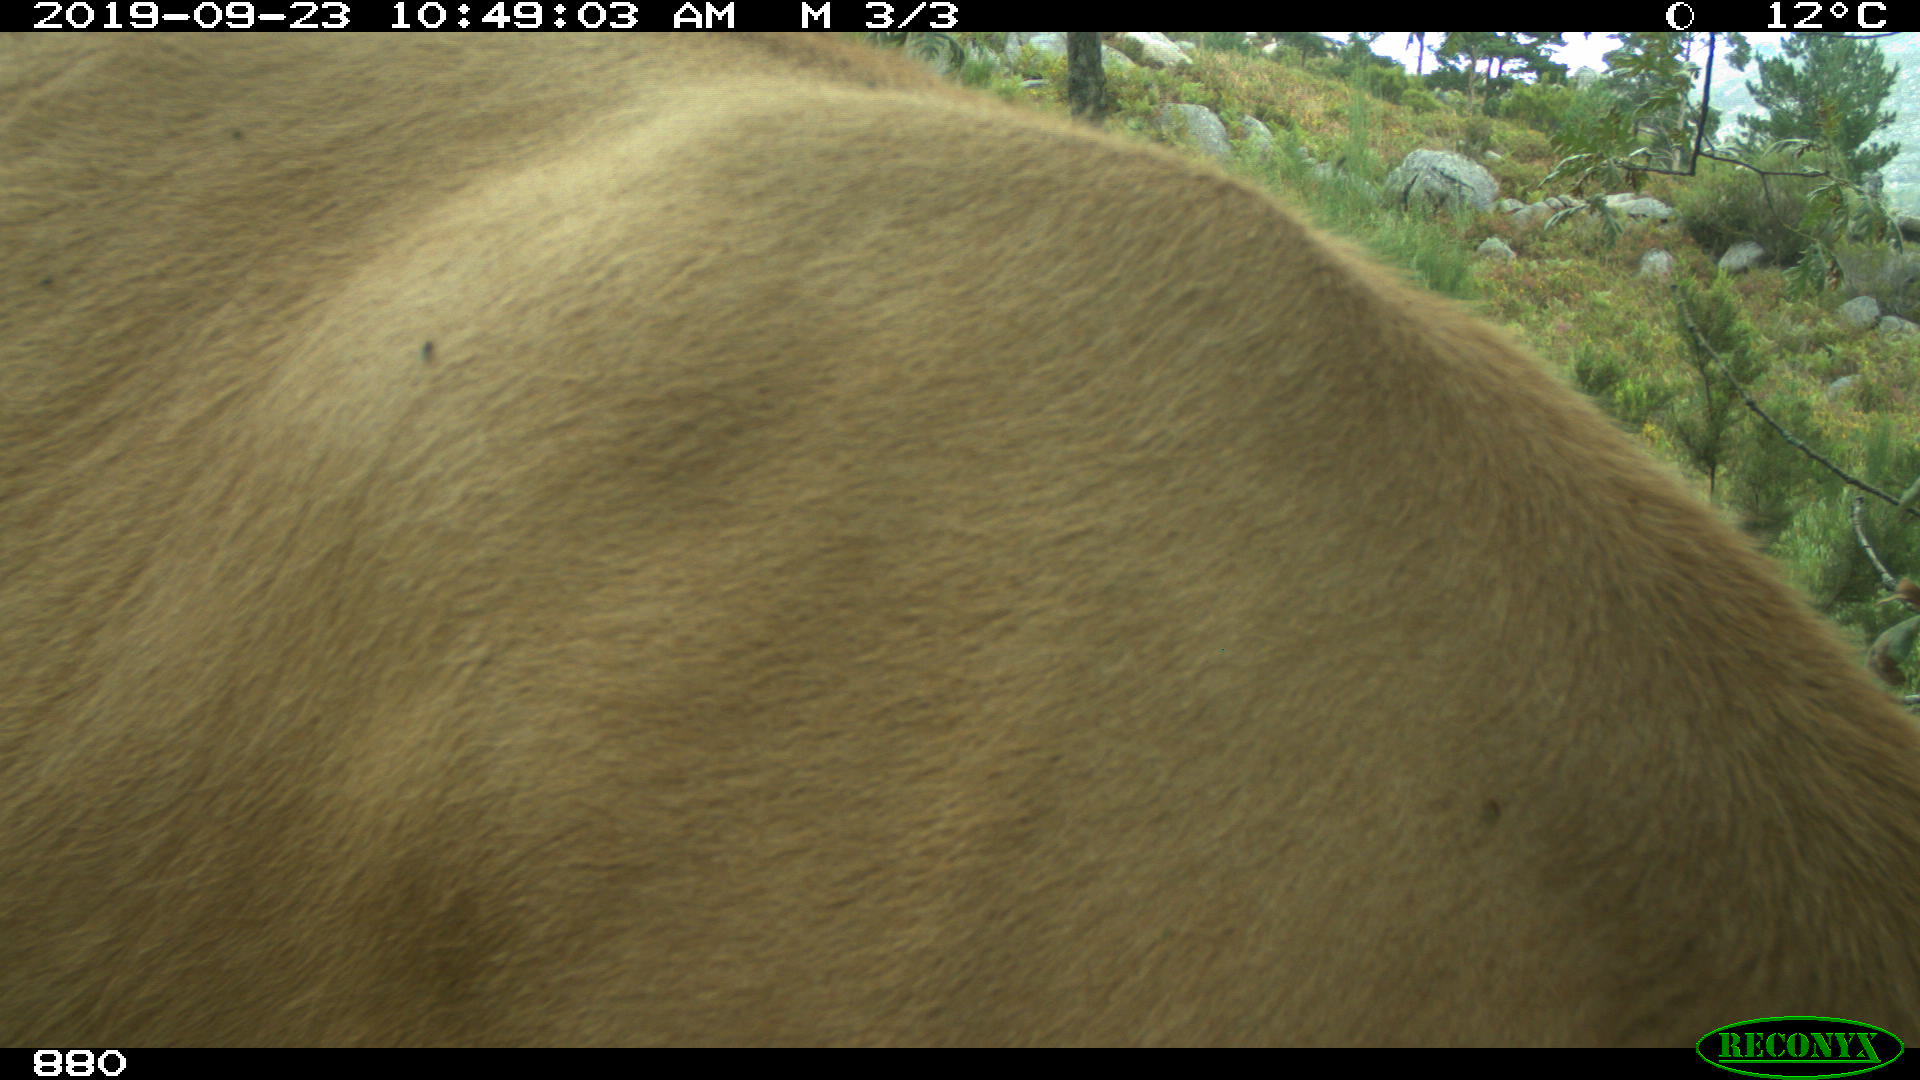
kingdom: Animalia
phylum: Chordata
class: Mammalia
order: Artiodactyla
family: Bovidae
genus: Bos
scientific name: Bos taurus
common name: Domesticated cattle
